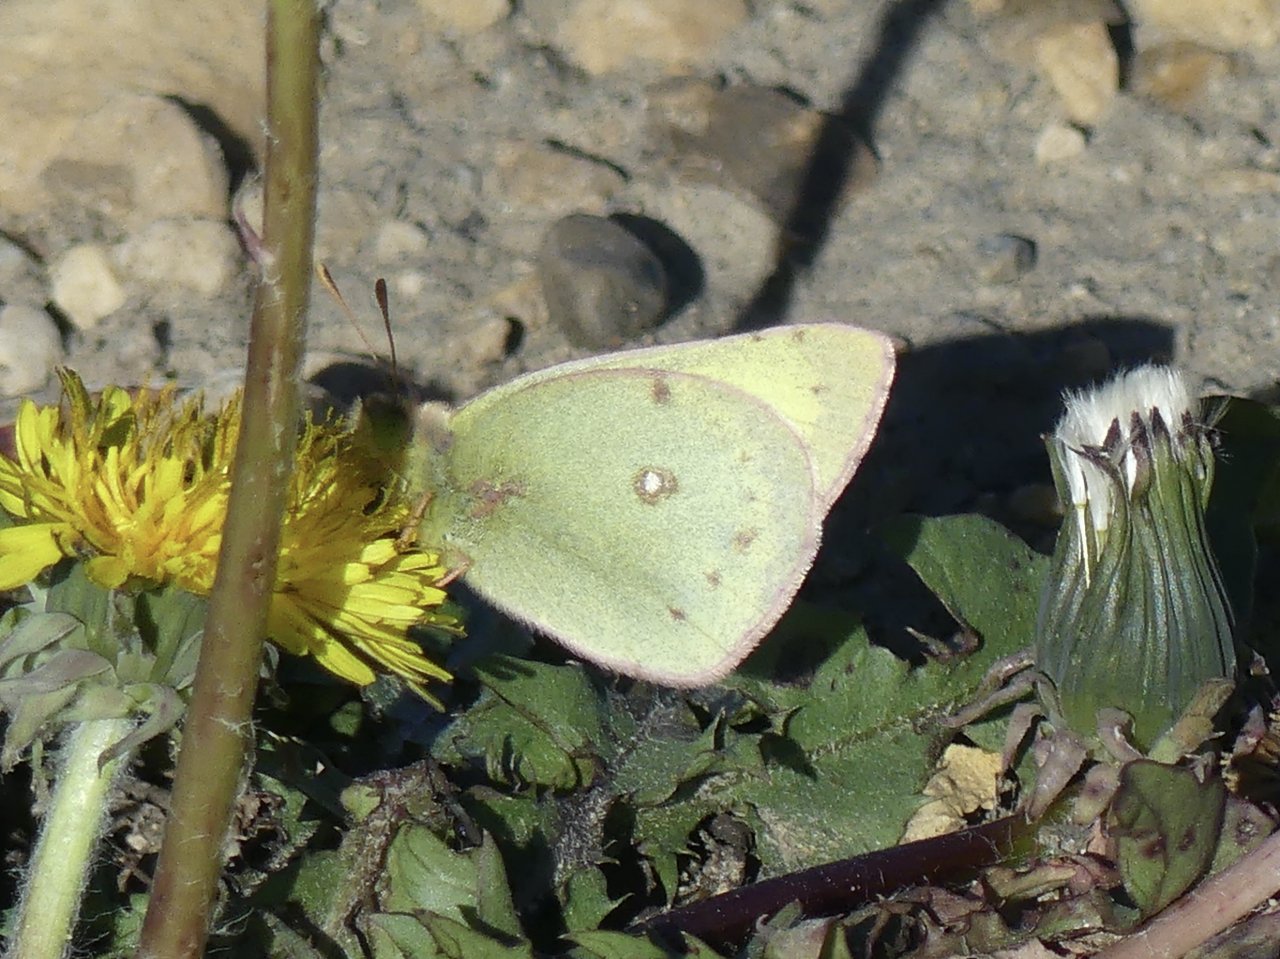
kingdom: Animalia
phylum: Arthropoda
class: Insecta
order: Lepidoptera
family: Pieridae
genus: Colias
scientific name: Colias philodice
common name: Clouded Sulphur
